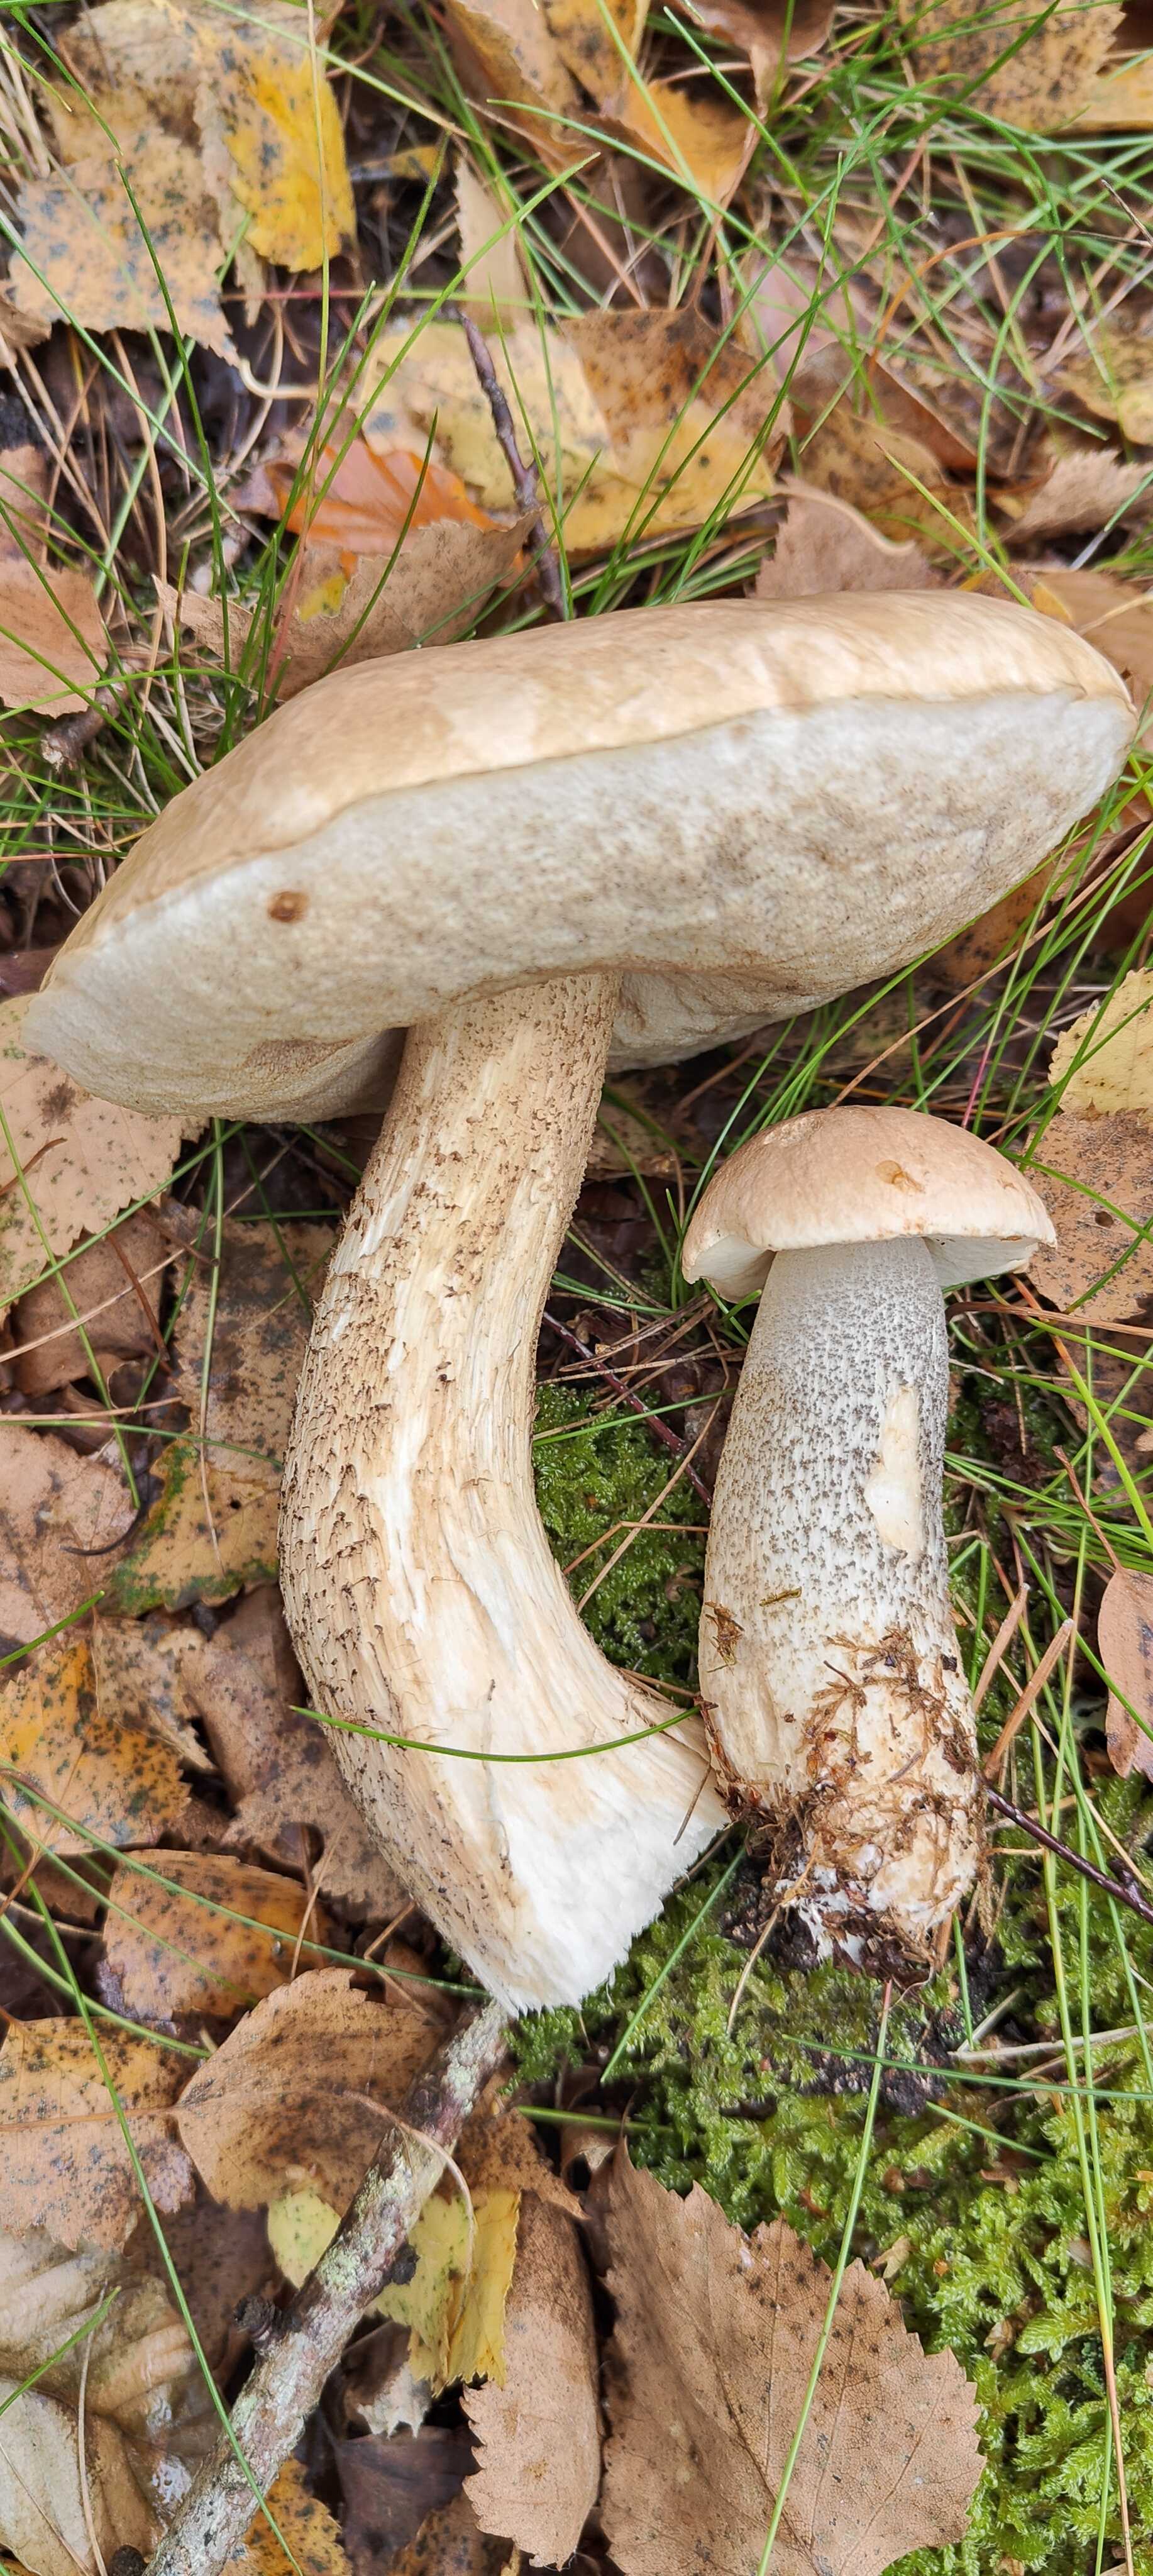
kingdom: Fungi
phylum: Basidiomycota
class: Agaricomycetes
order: Boletales
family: Boletaceae
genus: Leccinum
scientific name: Leccinum scabrum
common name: brun skælrørhat
